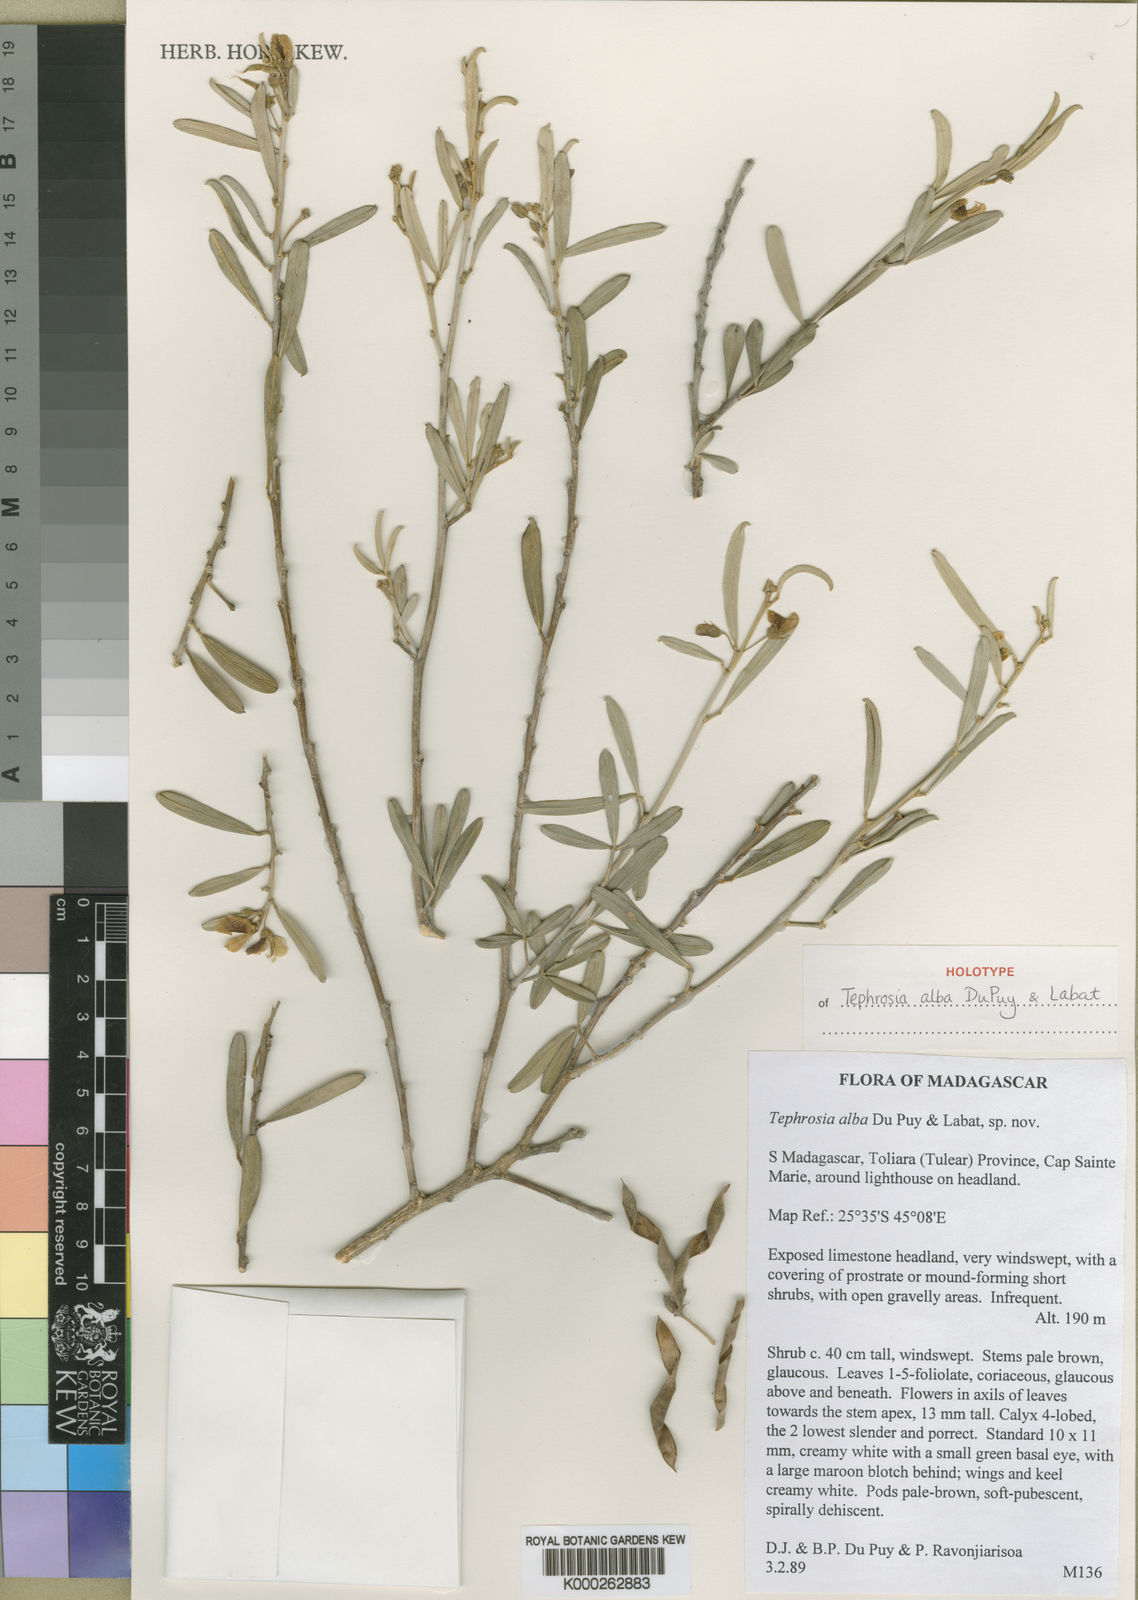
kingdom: Plantae
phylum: Tracheophyta
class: Magnoliopsida
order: Fabales
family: Fabaceae
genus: Tephrosia
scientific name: Tephrosia alba
